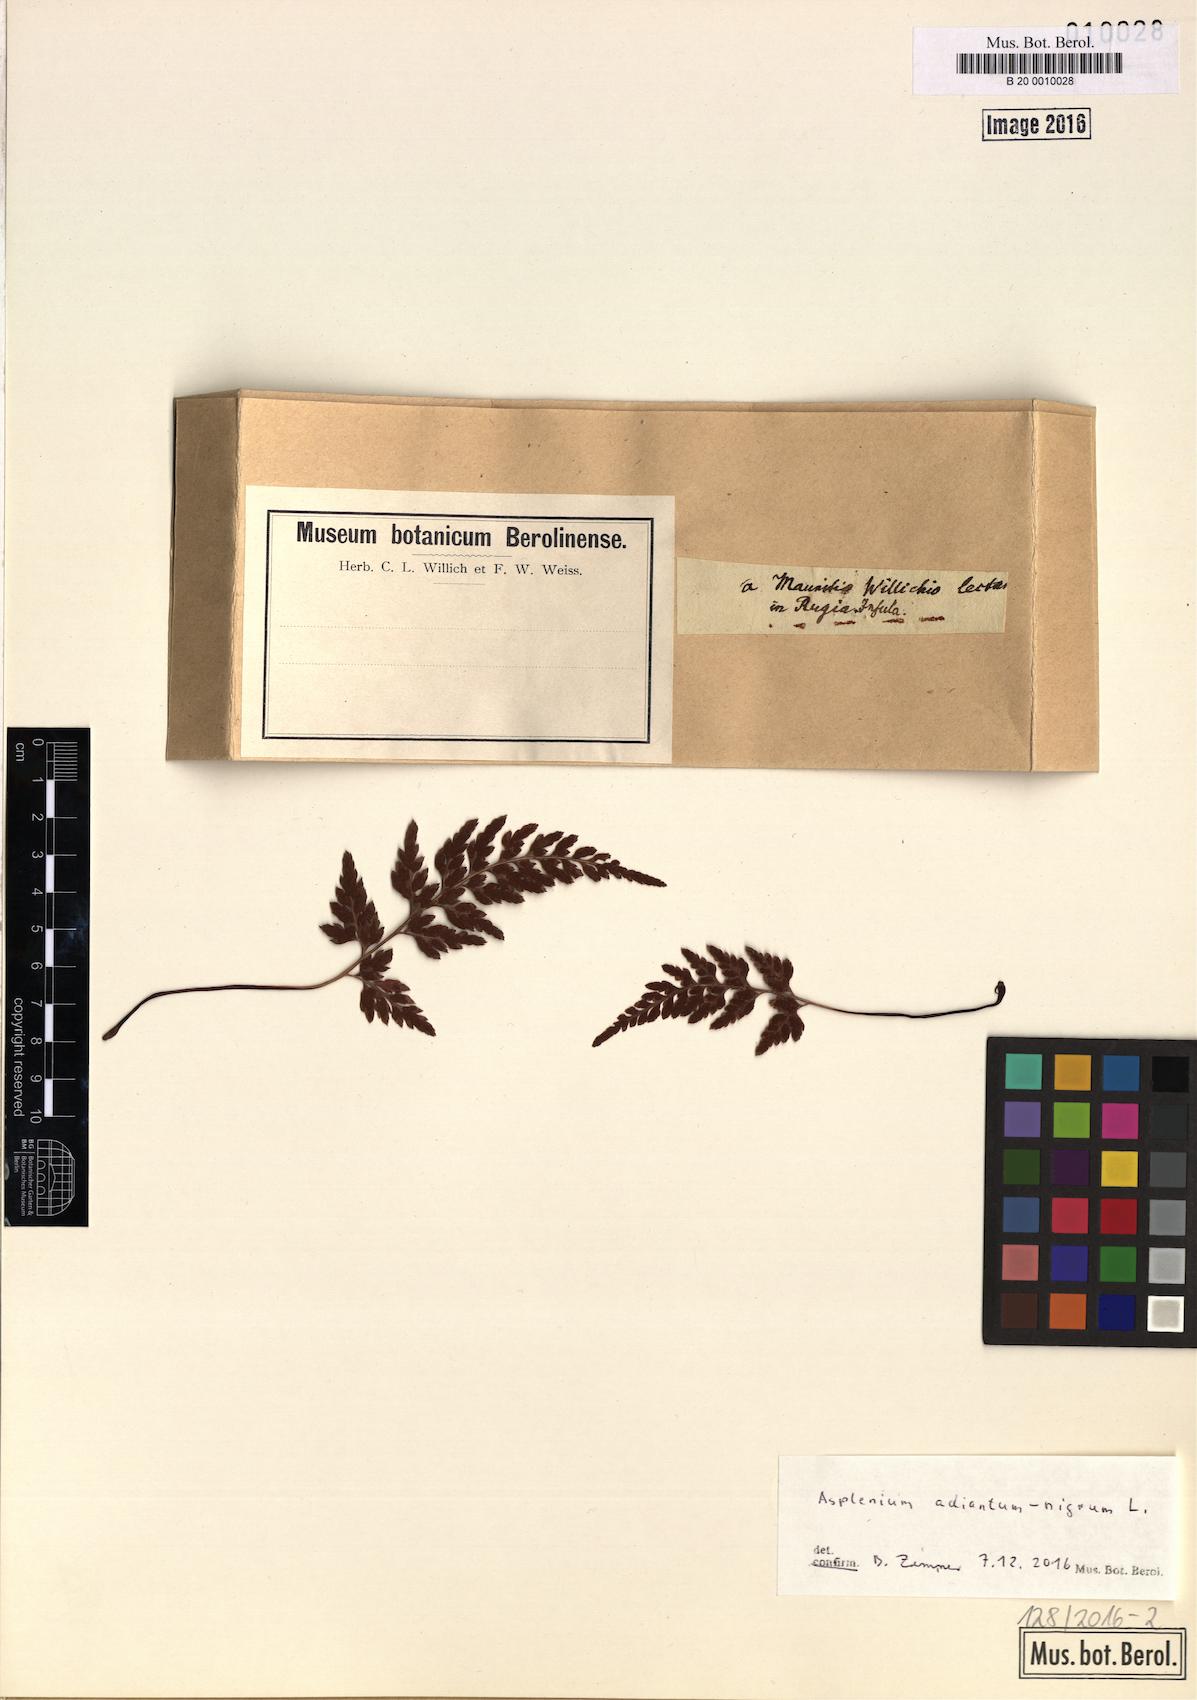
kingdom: Plantae
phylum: Tracheophyta
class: Polypodiopsida
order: Polypodiales
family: Aspleniaceae
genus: Asplenium
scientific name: Asplenium adiantum-nigrum
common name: Black spleenwort
